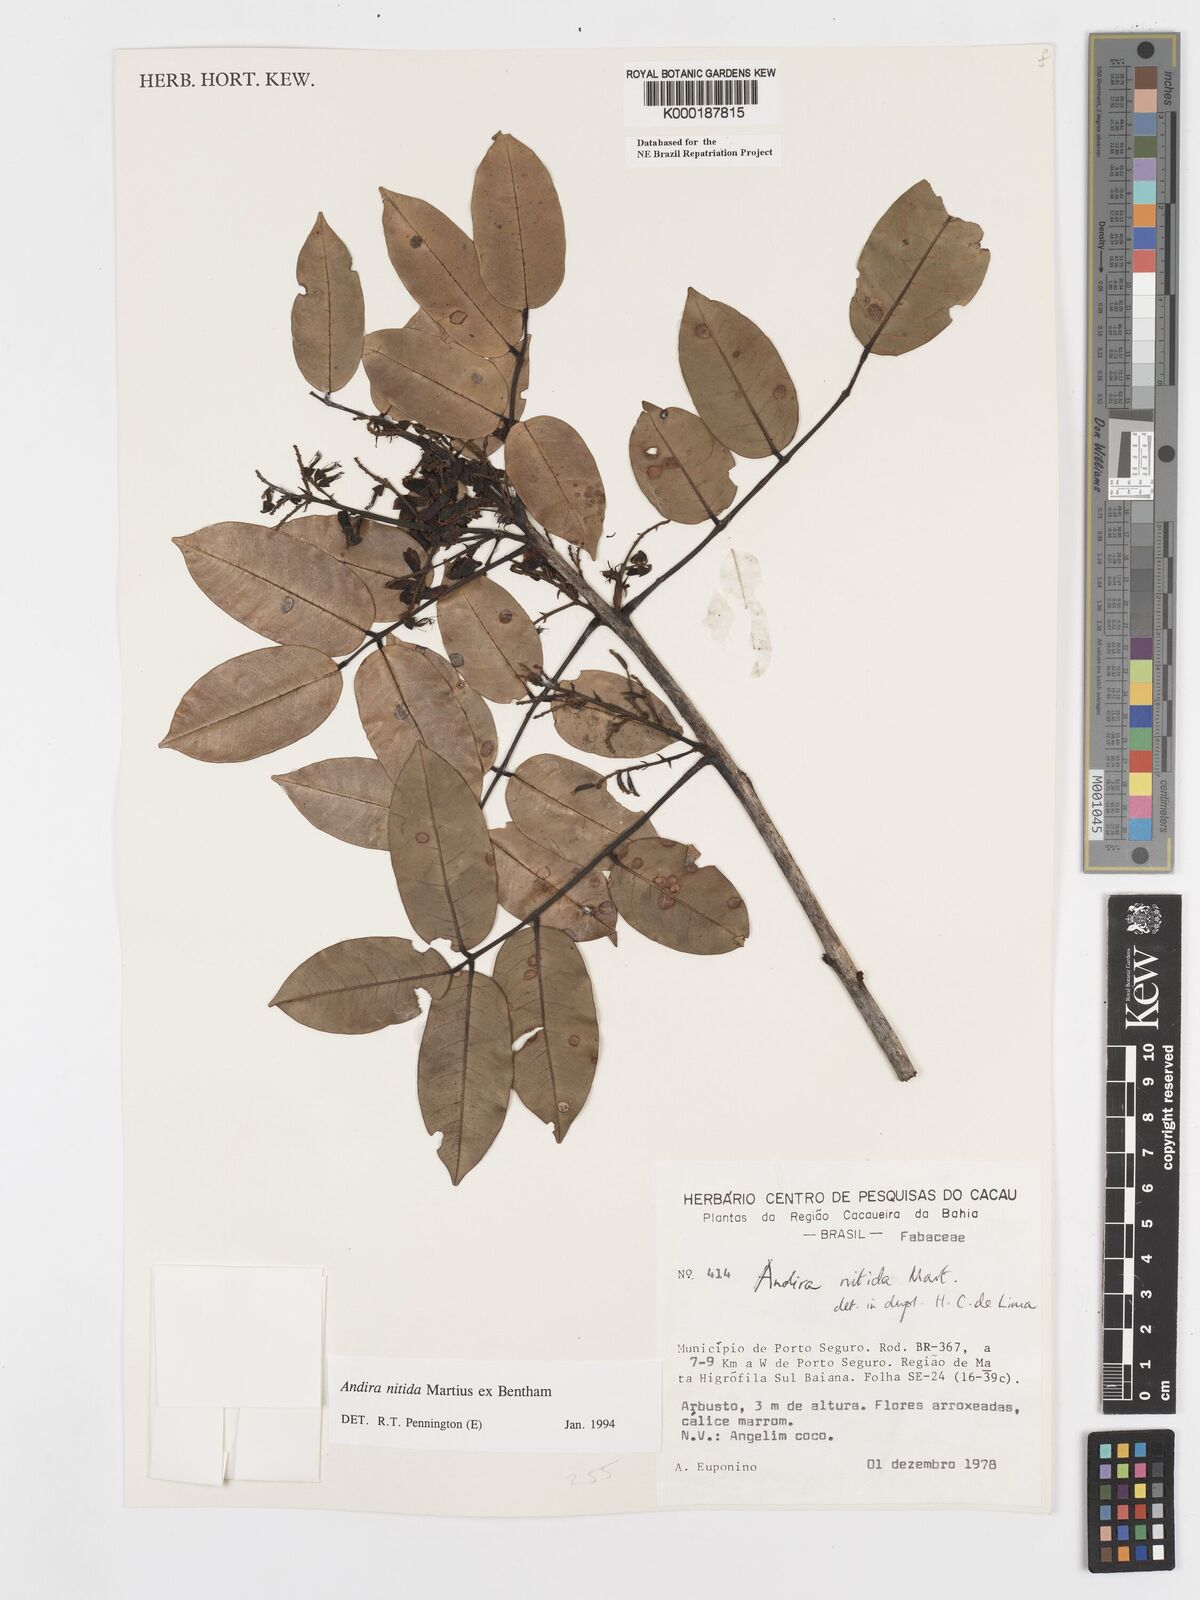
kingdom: Plantae
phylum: Tracheophyta
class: Magnoliopsida
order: Fabales
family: Fabaceae
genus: Andira
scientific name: Andira nitida
